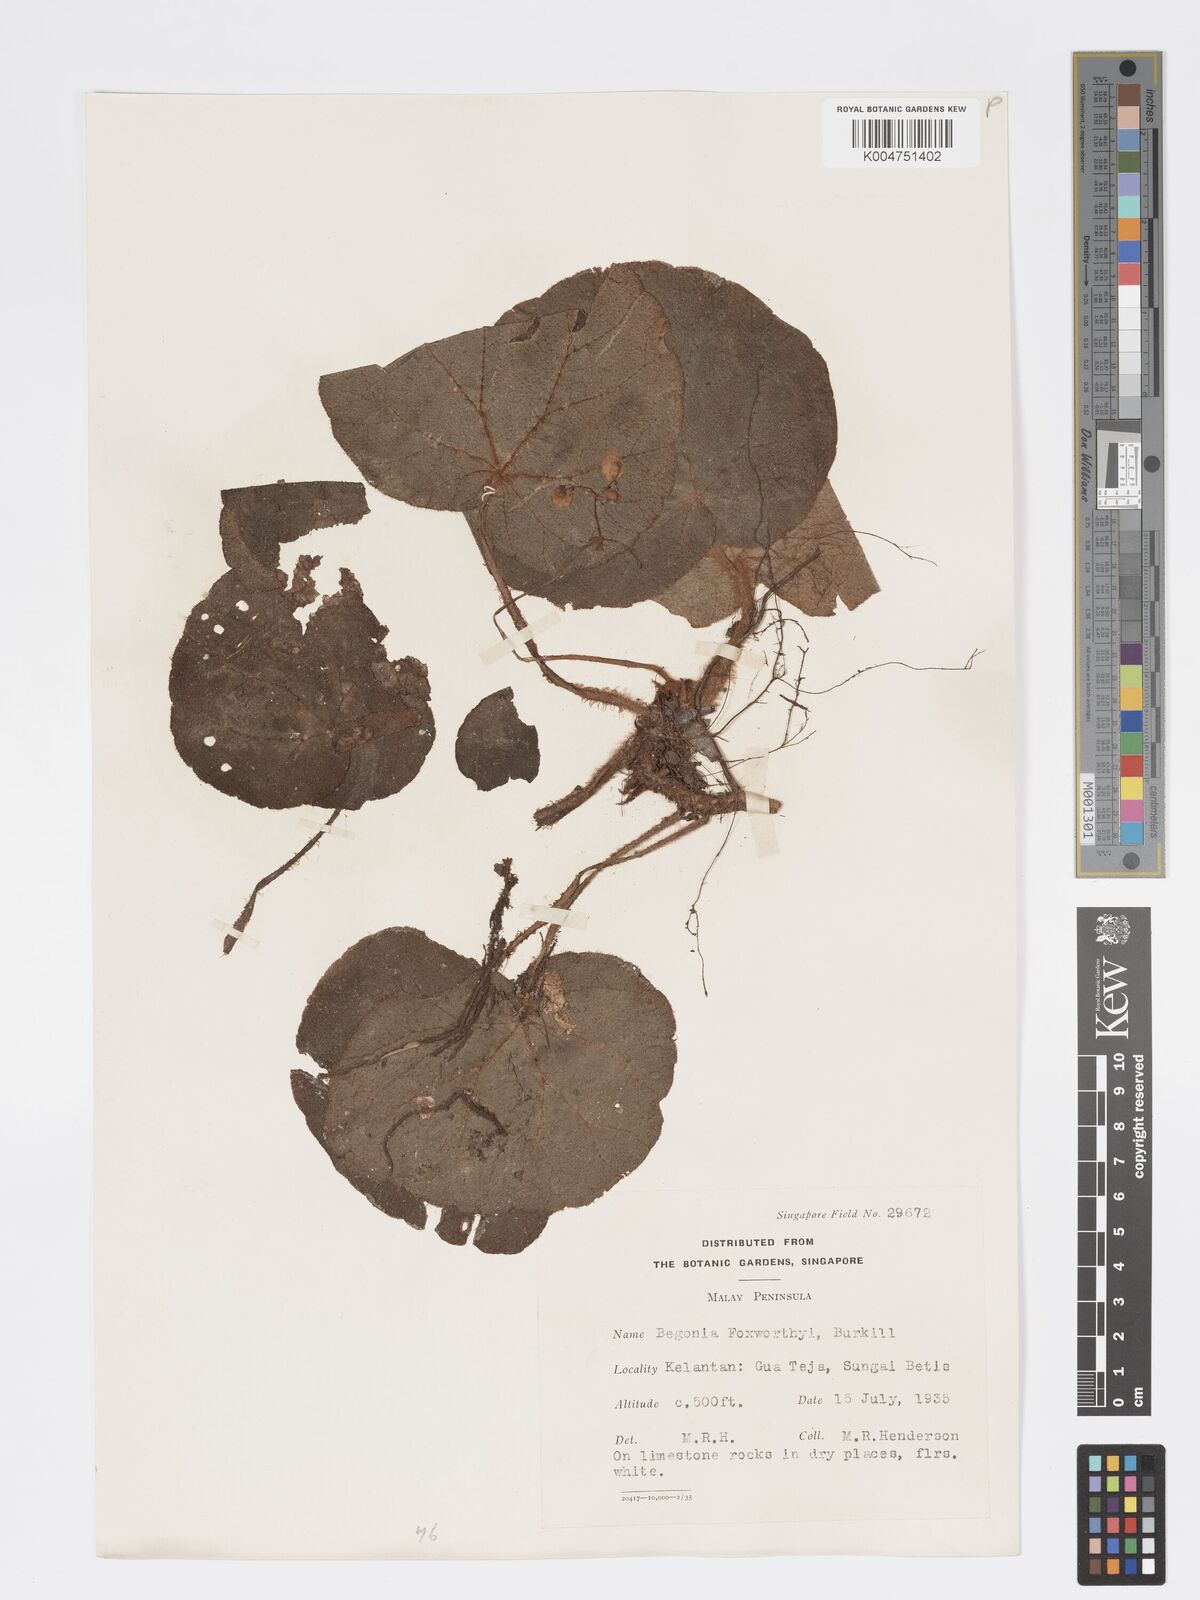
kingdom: Plantae
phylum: Tracheophyta
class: Magnoliopsida
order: Cucurbitales
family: Begoniaceae
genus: Begonia
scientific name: Begonia foxworthyi
